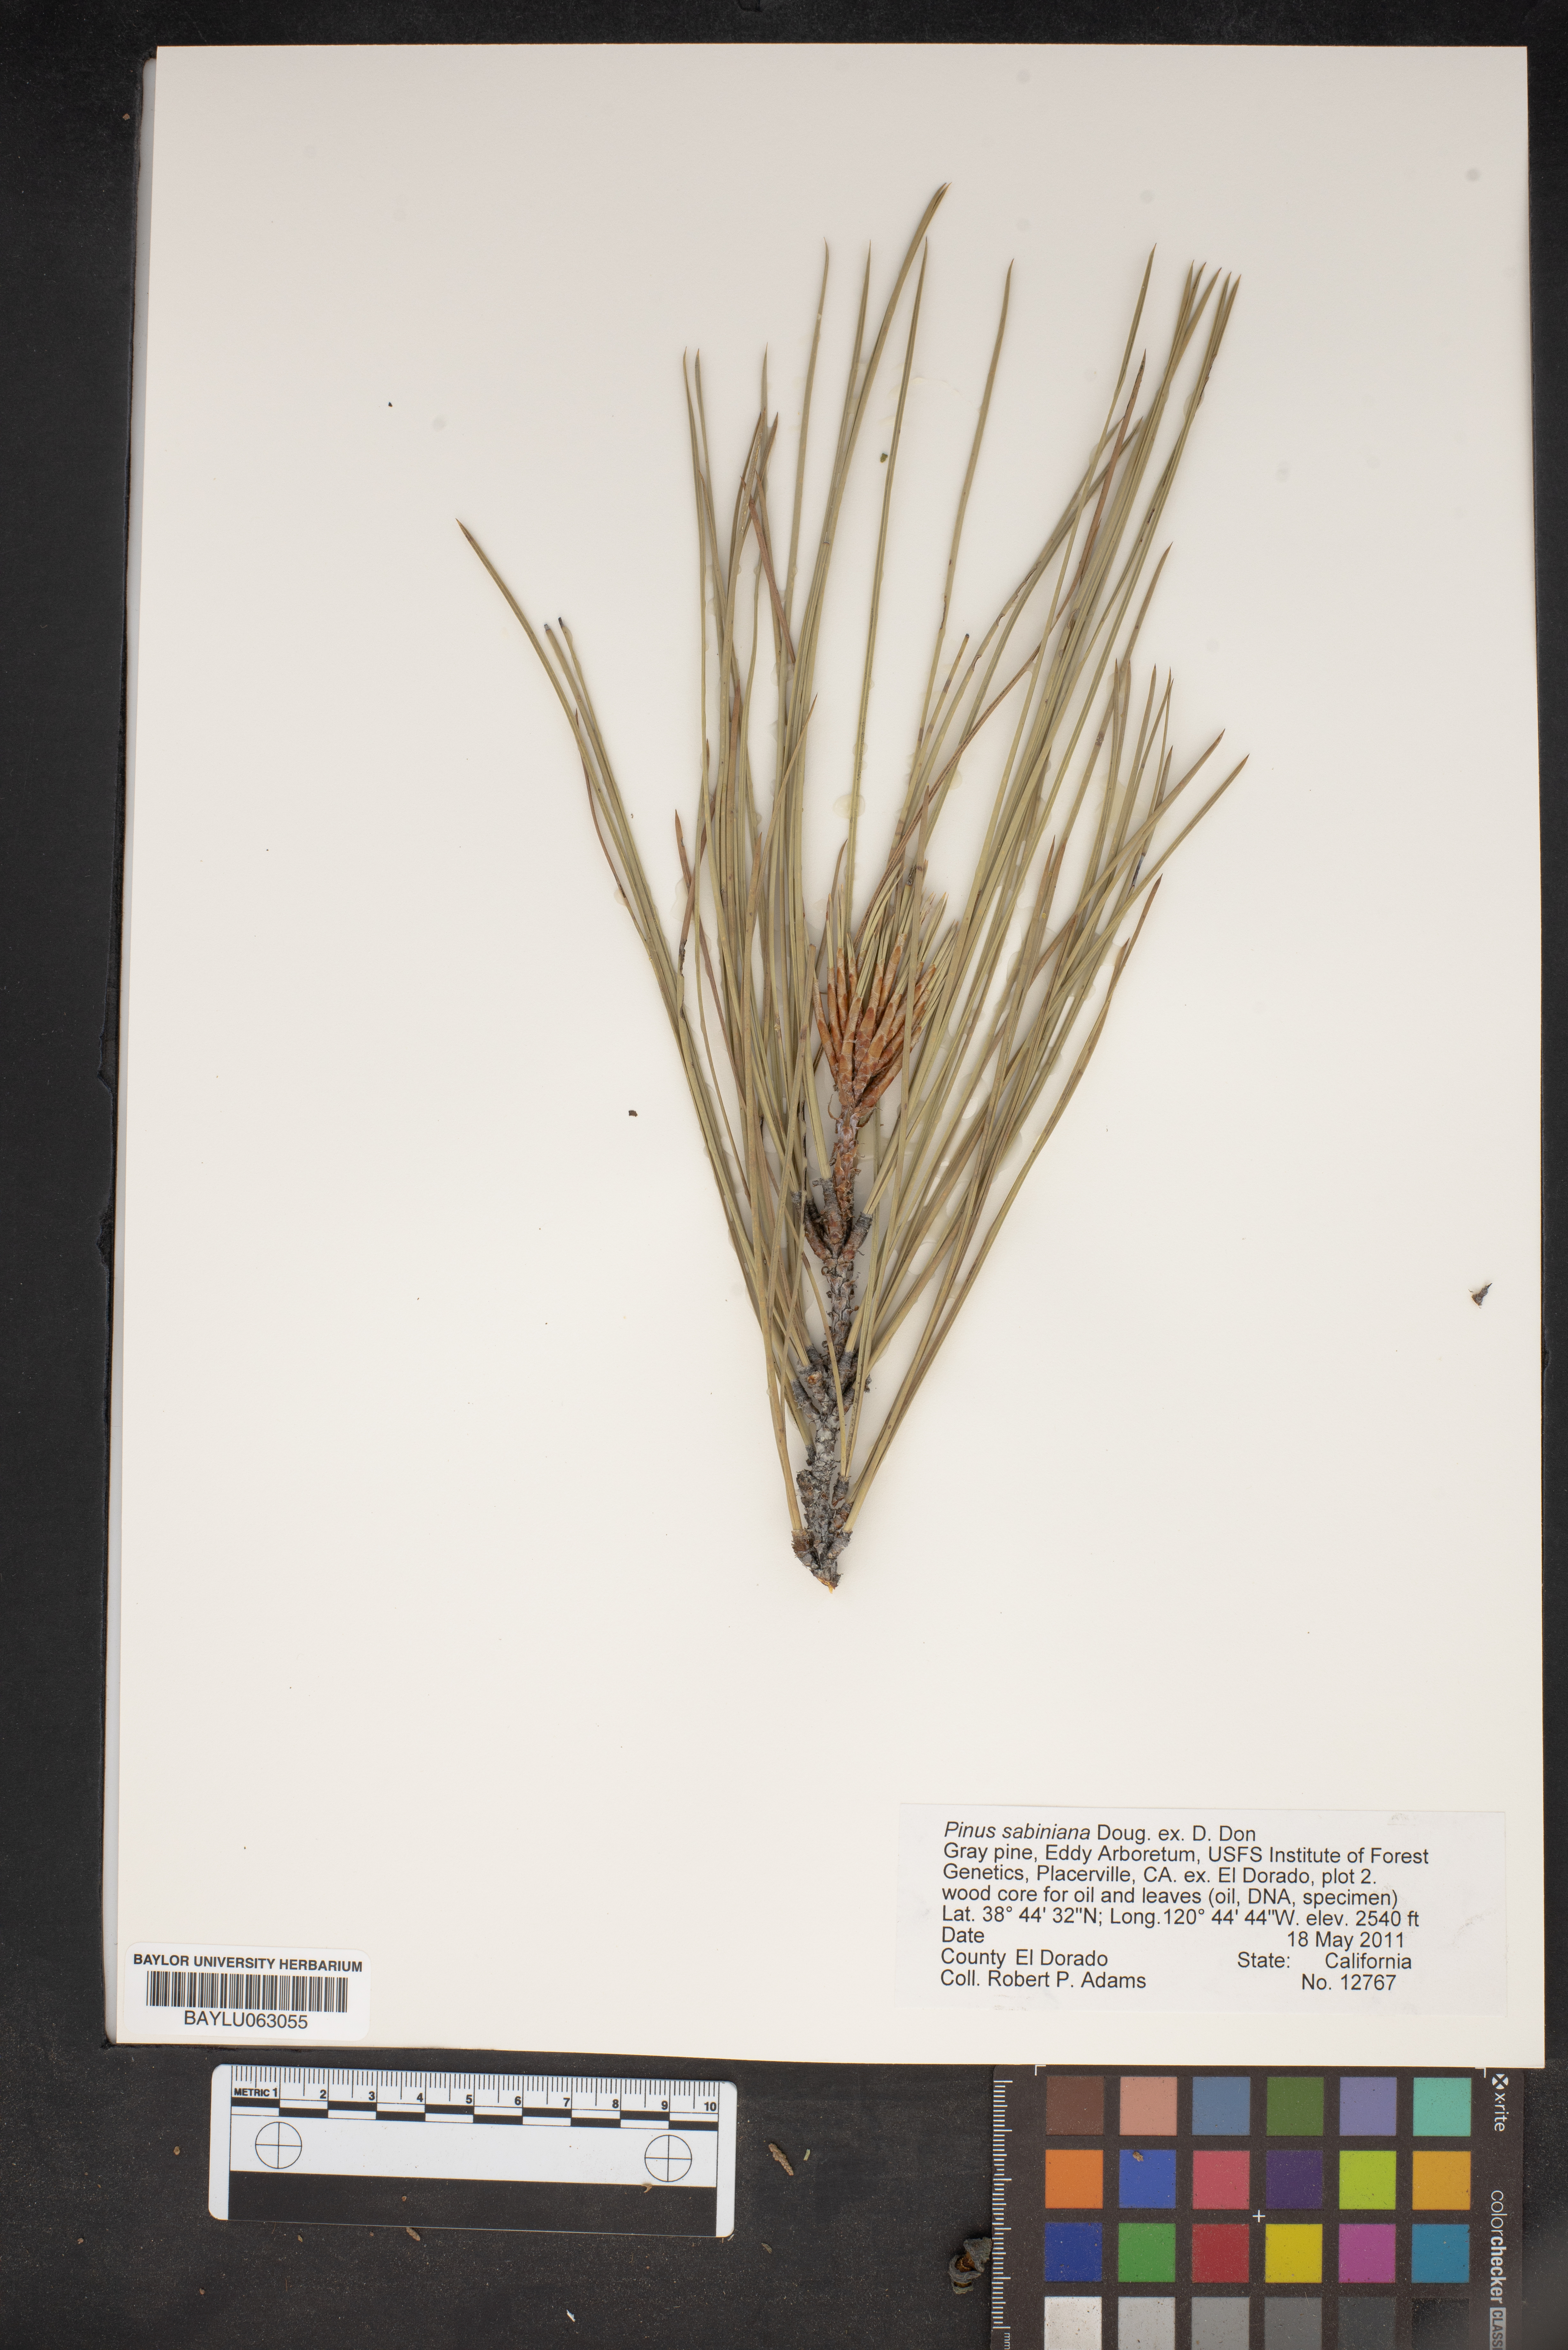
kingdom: Plantae
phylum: Tracheophyta
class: Pinopsida
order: Pinales
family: Pinaceae
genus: Pinus
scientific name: Pinus sabiniana
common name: Bull pine
